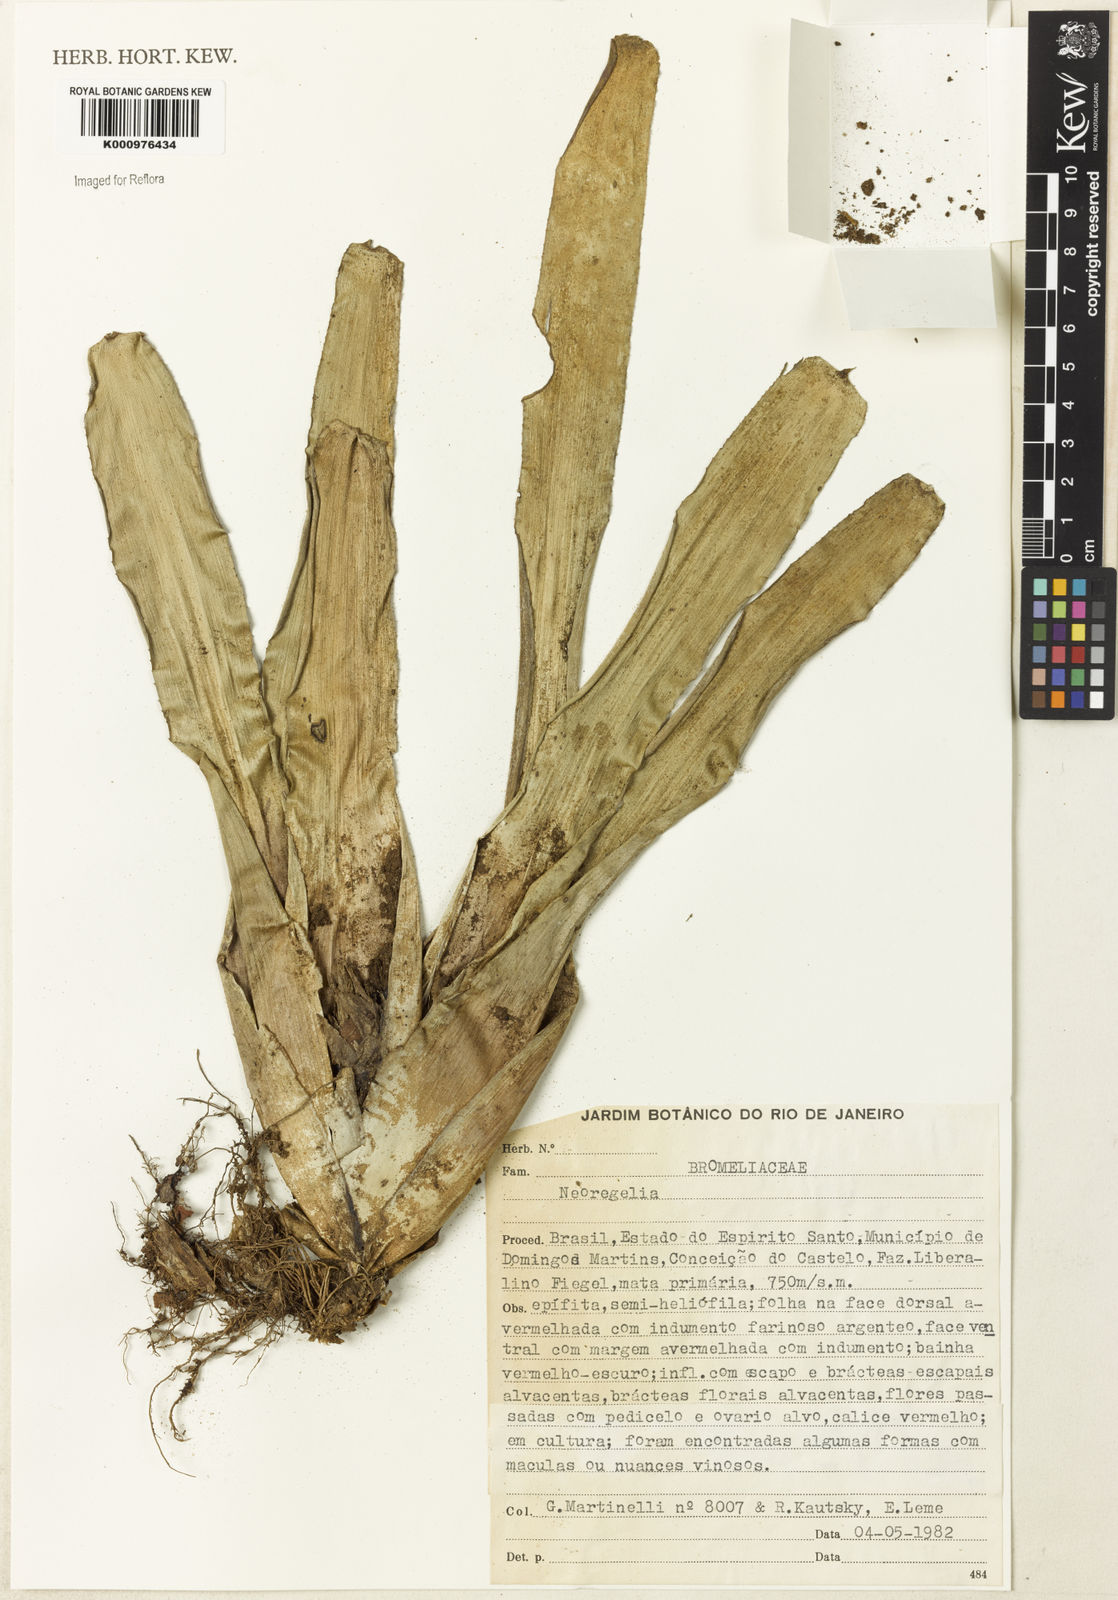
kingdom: Plantae
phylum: Tracheophyta
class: Liliopsida
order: Poales
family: Bromeliaceae
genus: Neoregelia
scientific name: Neoregelia
